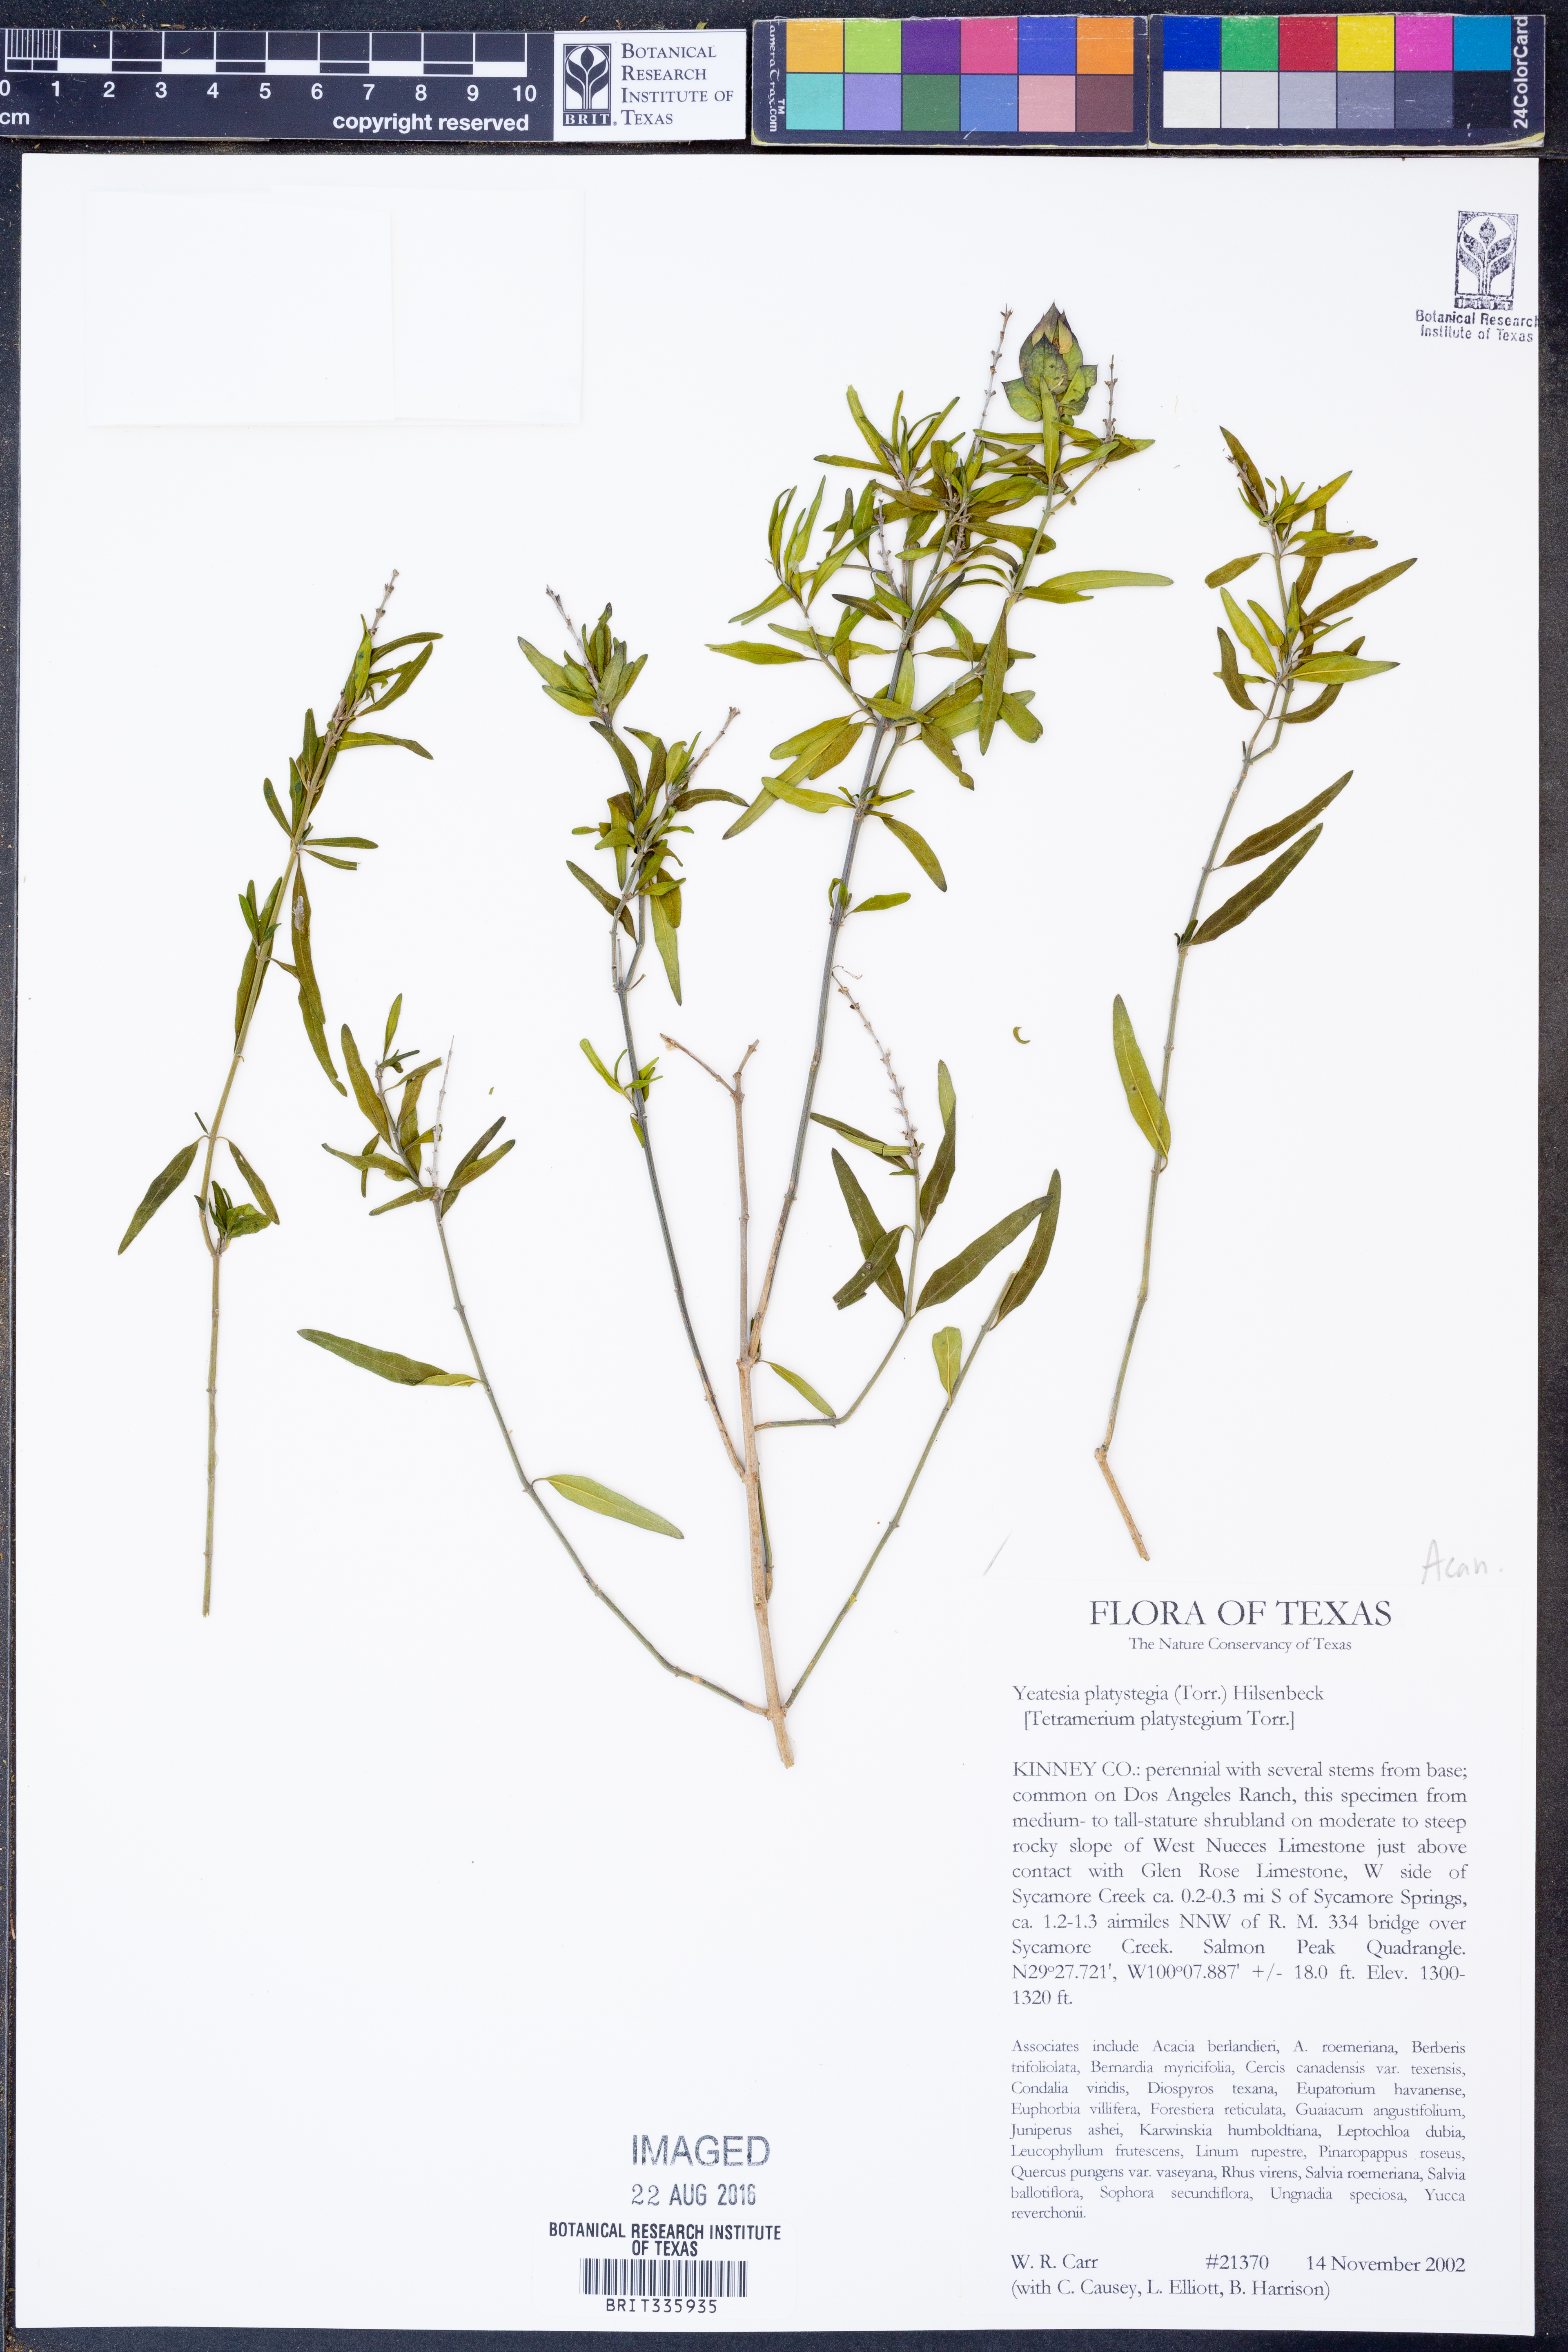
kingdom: Plantae
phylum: Tracheophyta
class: Magnoliopsida
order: Lamiales
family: Acanthaceae
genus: Yeatesia
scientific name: Yeatesia platystegia
